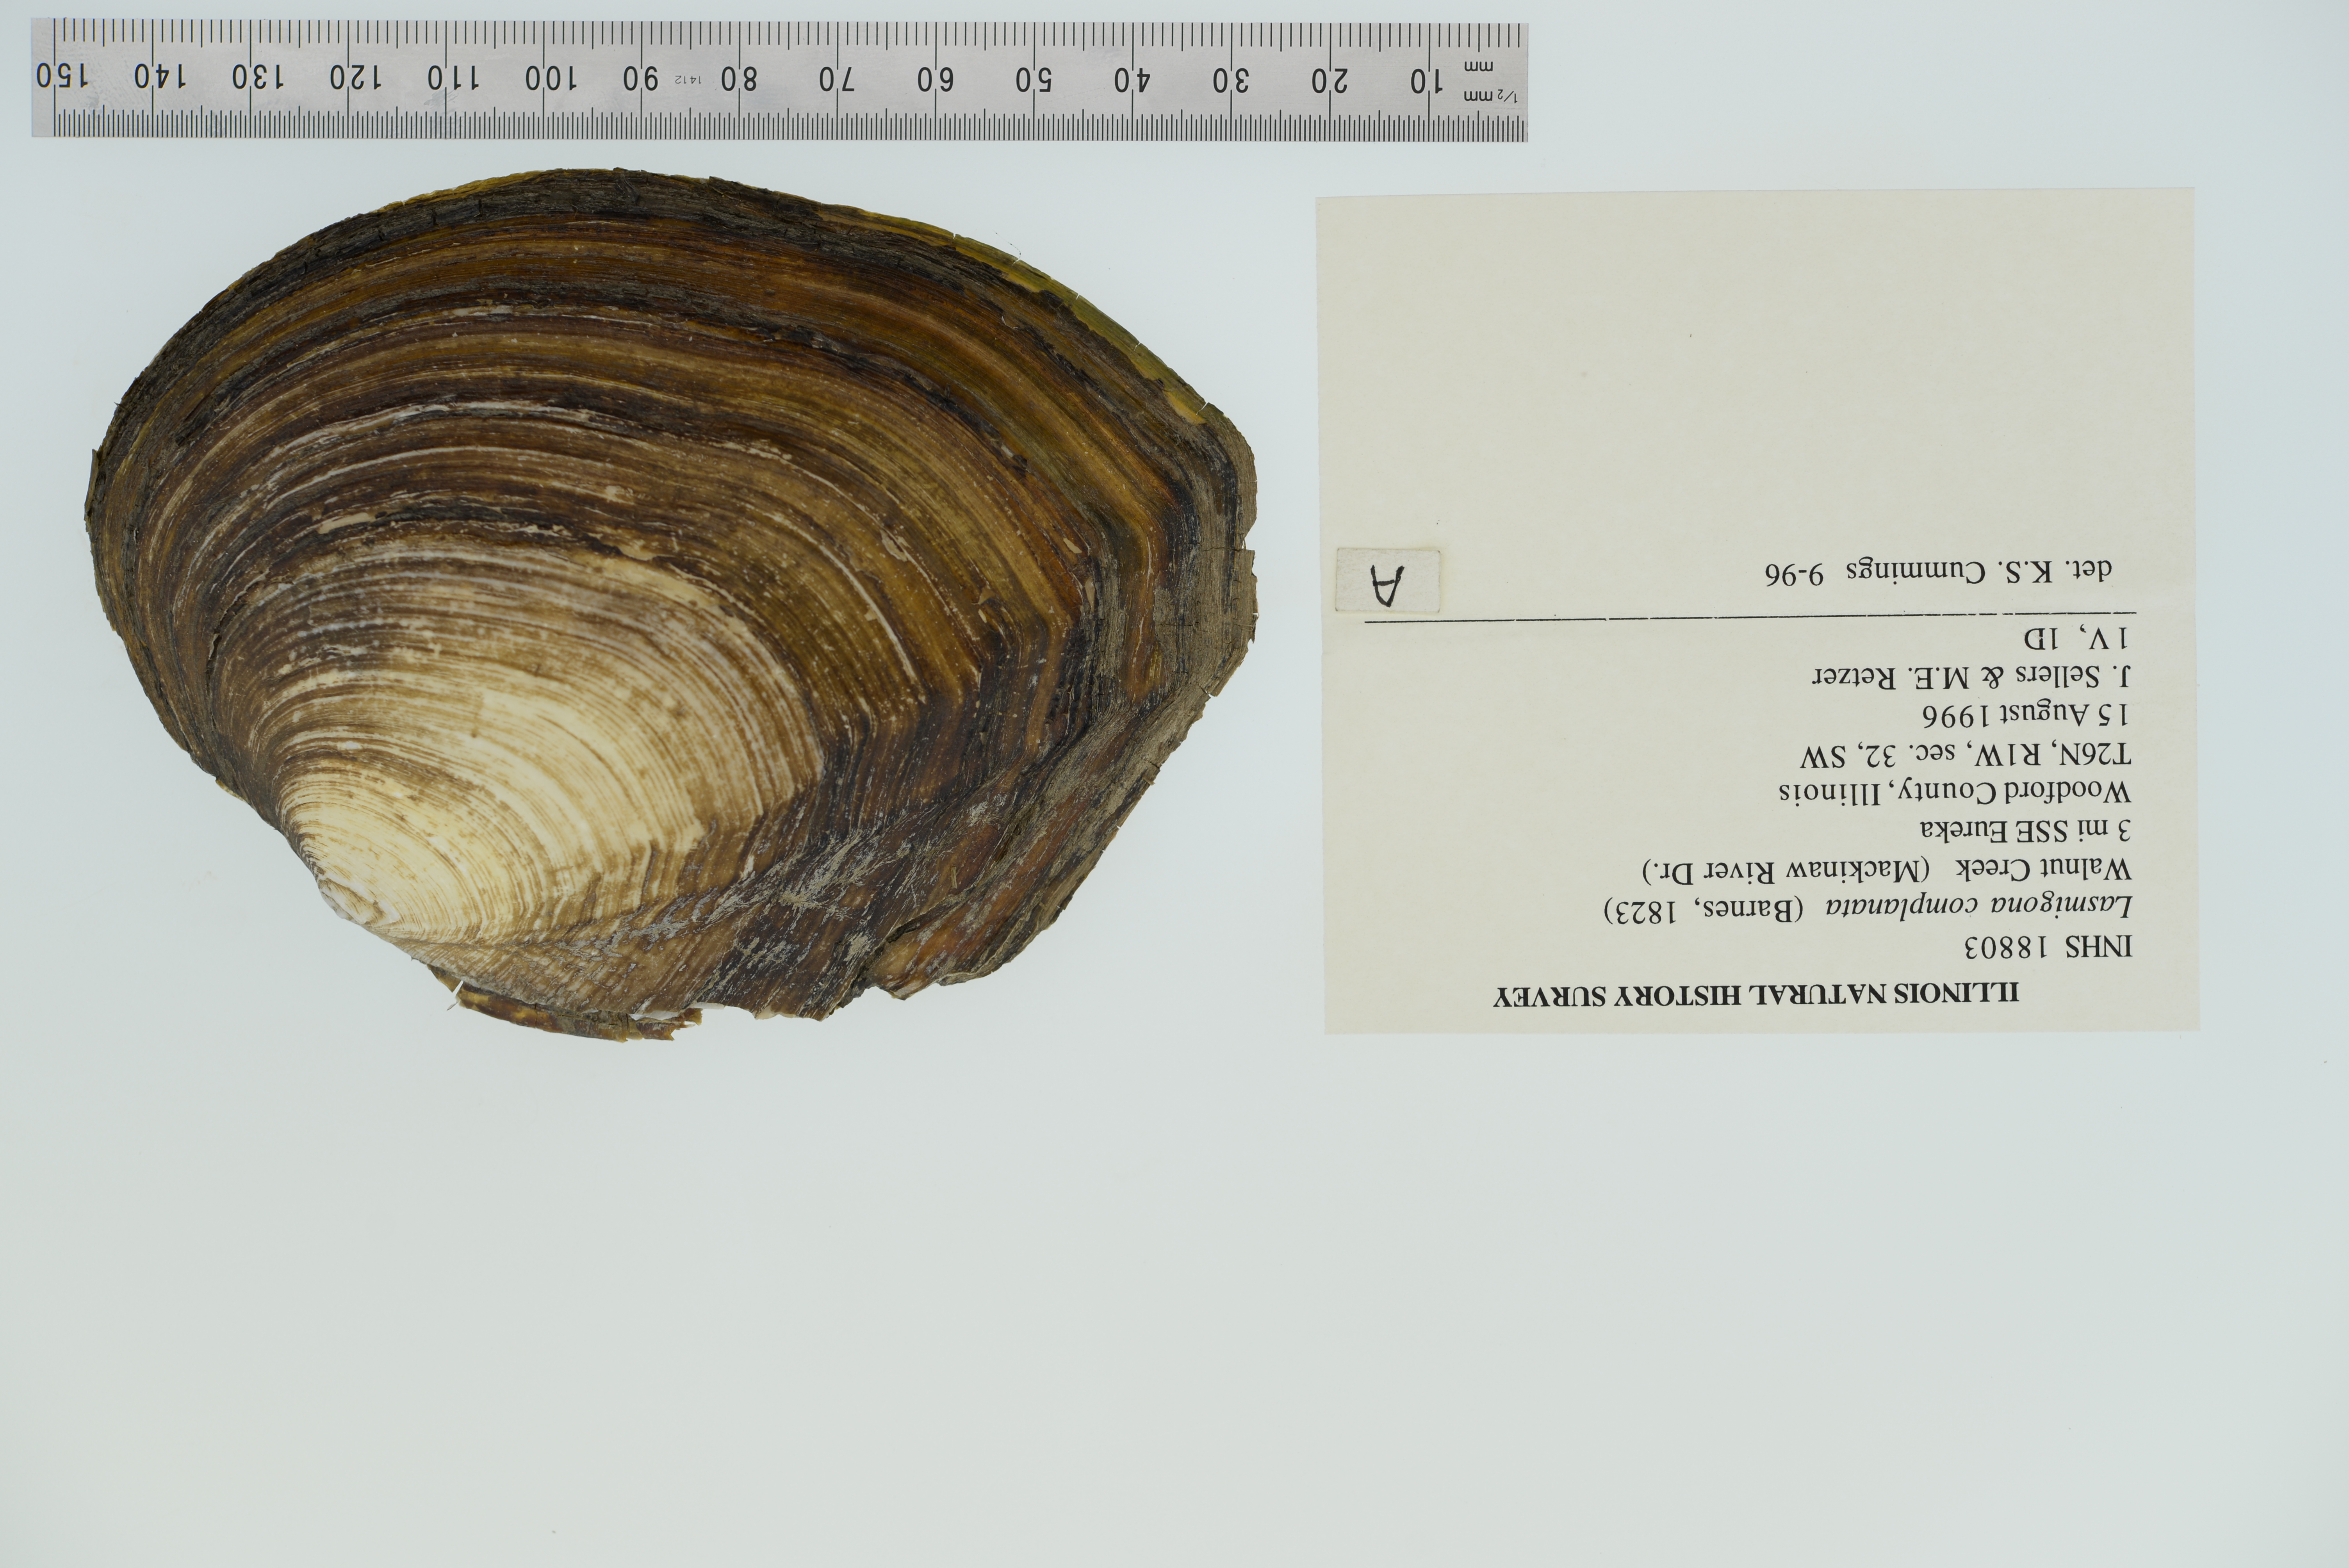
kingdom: Animalia
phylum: Mollusca
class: Bivalvia
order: Unionida
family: Unionidae
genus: Lasmigona
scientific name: Lasmigona complanata
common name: White heelsplitter
